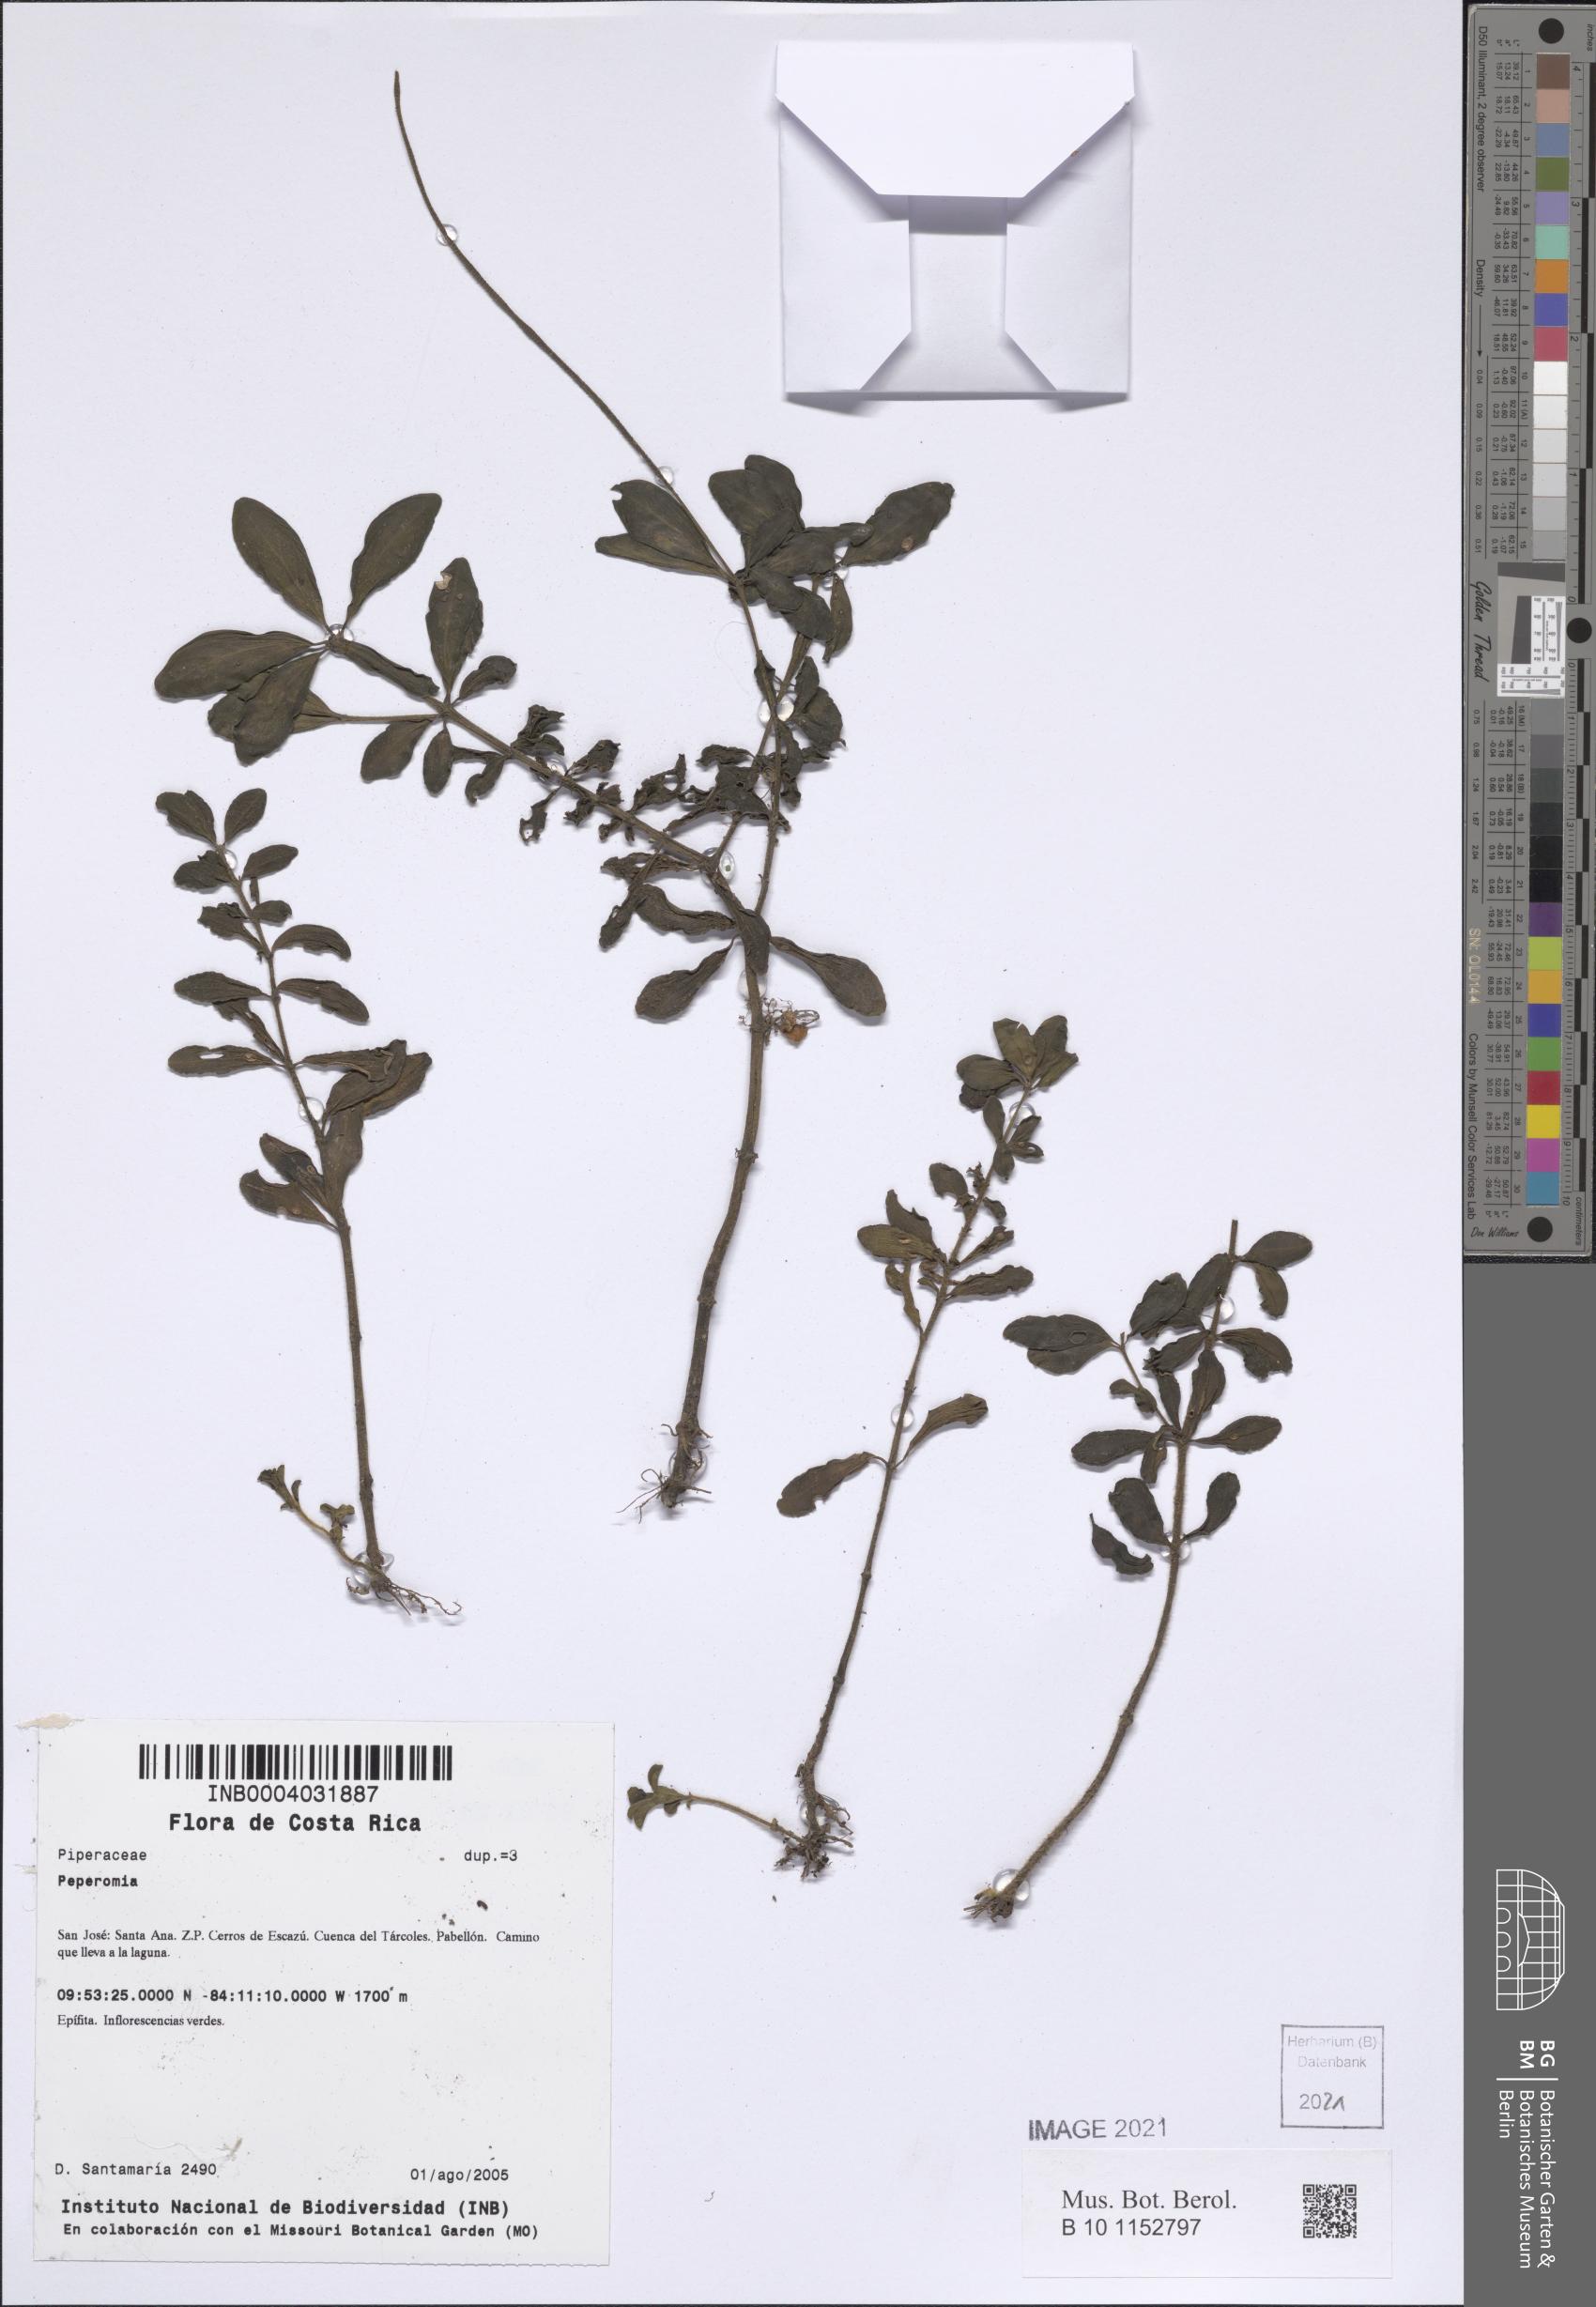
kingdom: Plantae
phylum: Tracheophyta
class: Magnoliopsida
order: Piperales
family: Piperaceae
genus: Peperomia
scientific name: Peperomia
